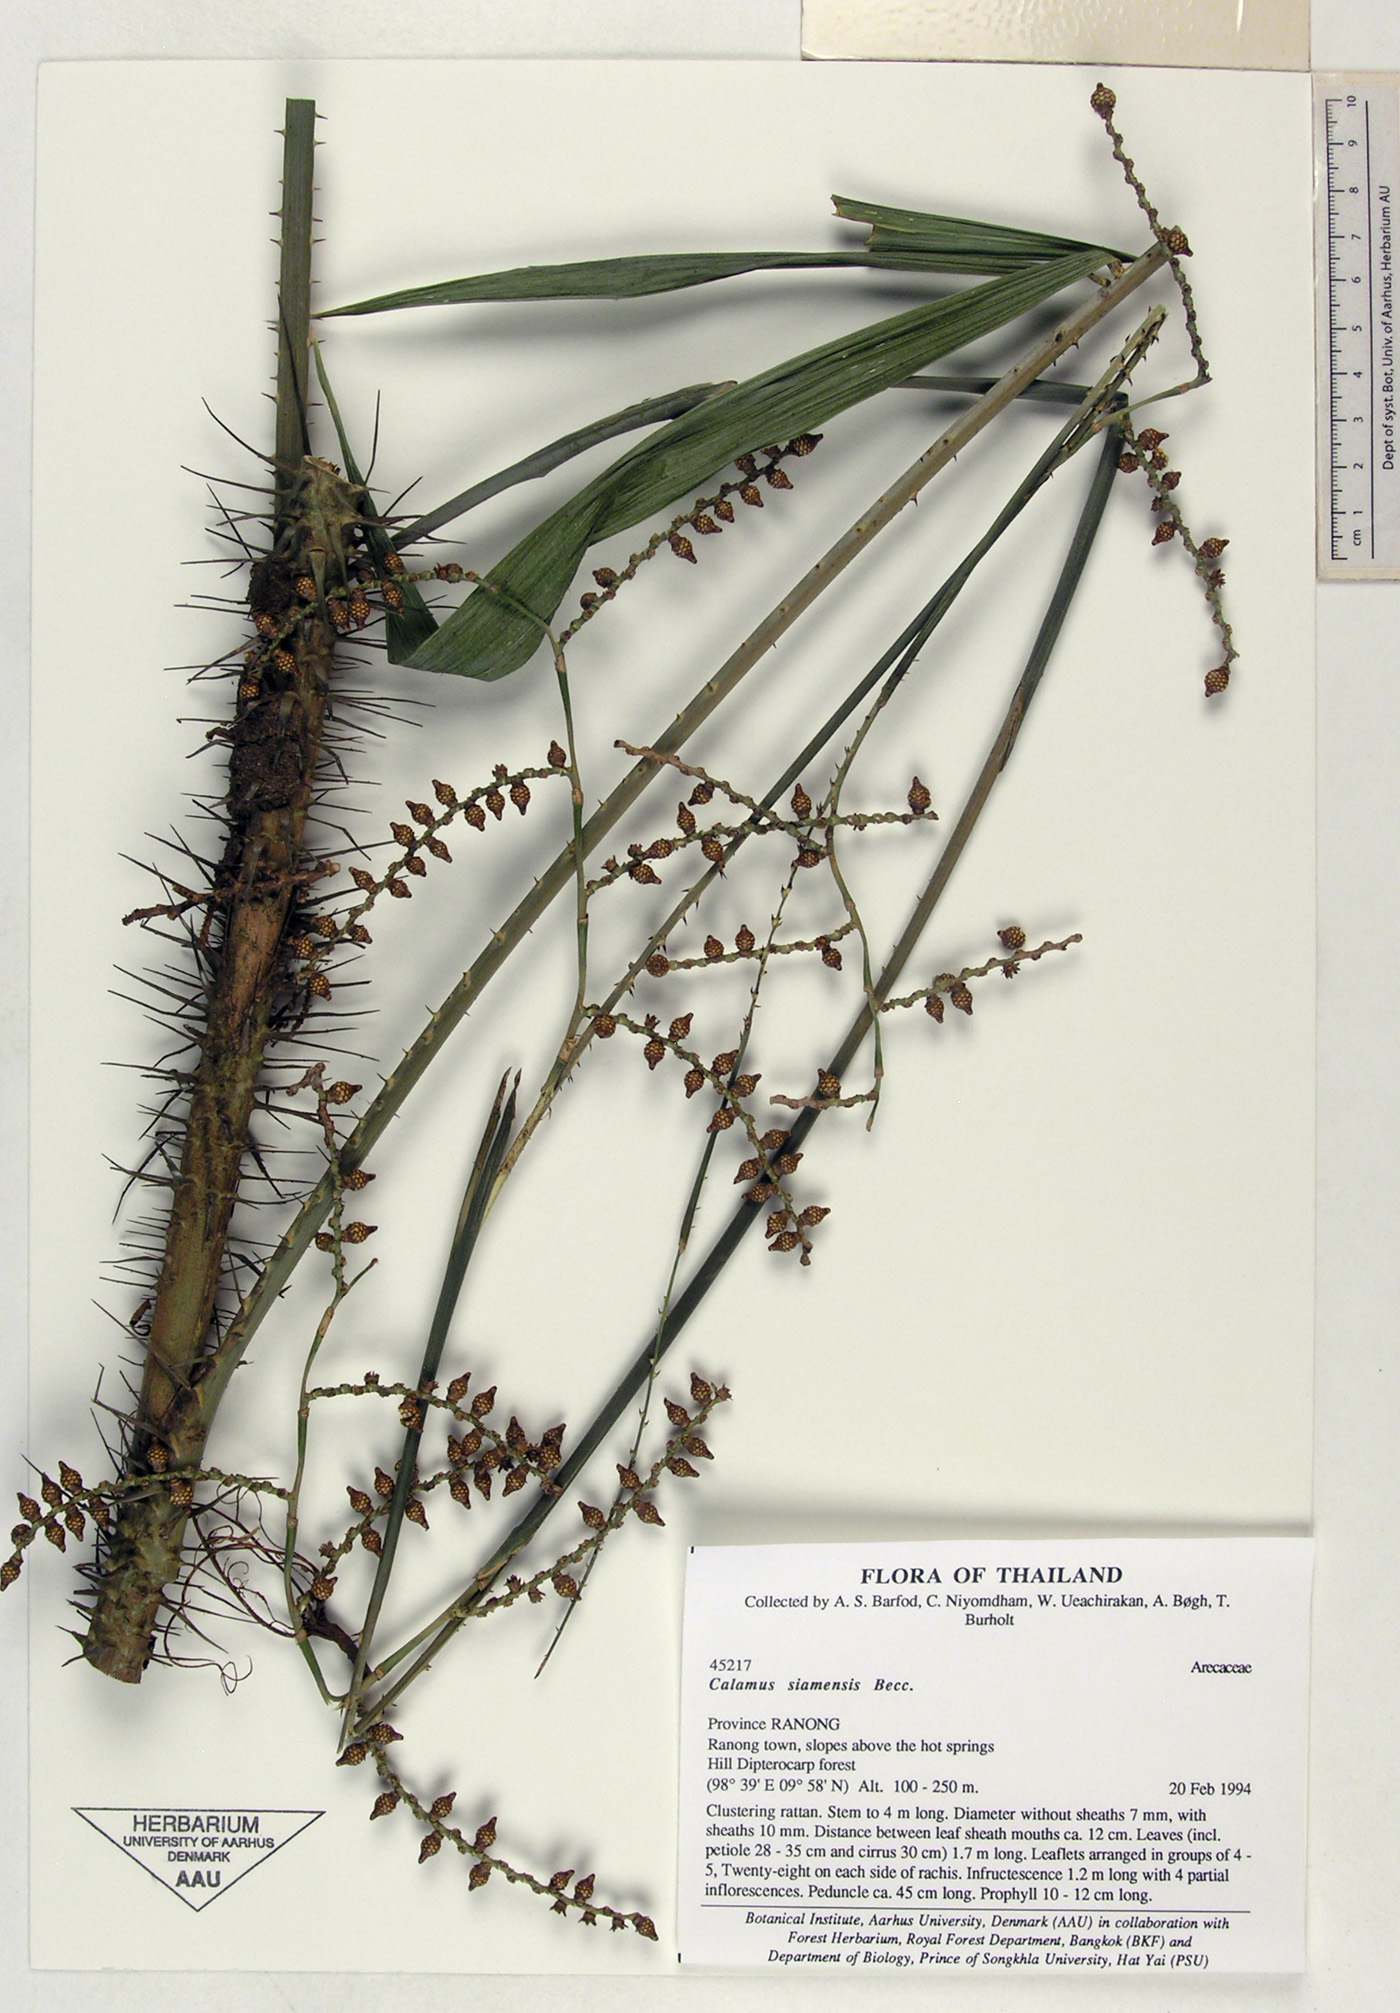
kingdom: Plantae
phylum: Tracheophyta
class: Liliopsida
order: Arecales
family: Arecaceae
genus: Calamus
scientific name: Calamus oxleyanus
